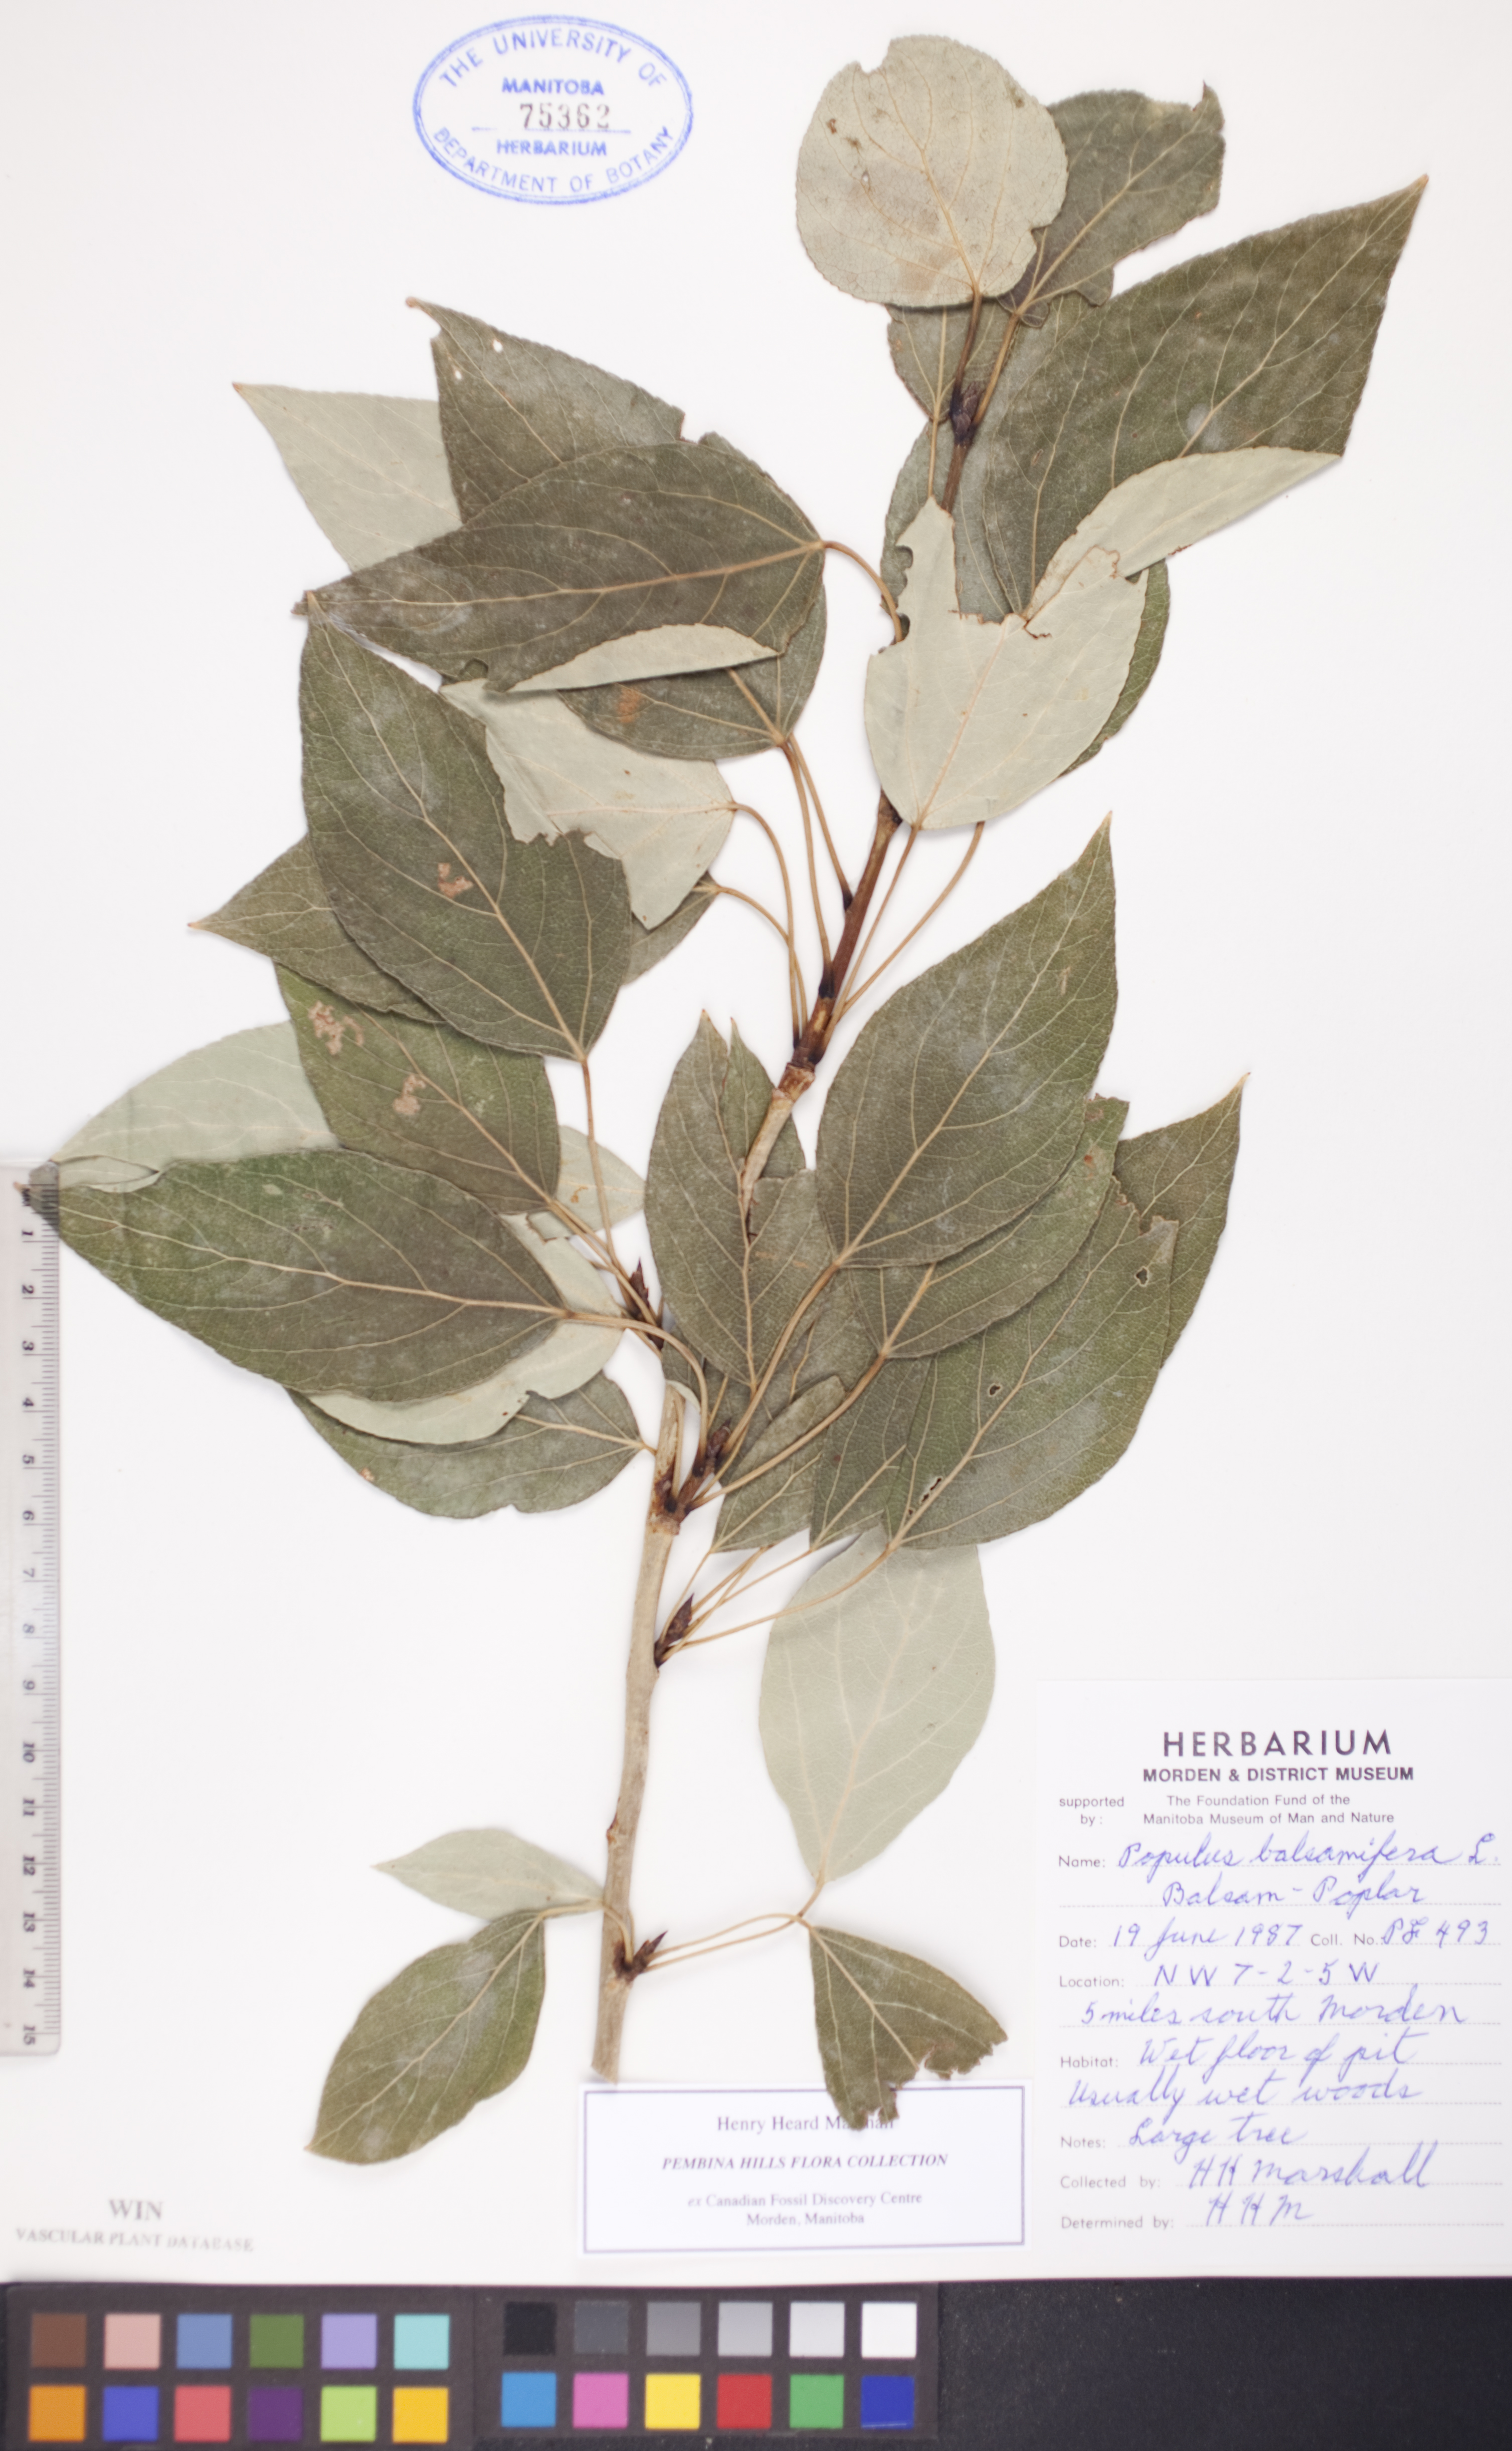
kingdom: Plantae
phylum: Tracheophyta
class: Magnoliopsida
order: Malpighiales
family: Salicaceae
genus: Populus
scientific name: Populus balsamifera
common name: Balsam poplar
